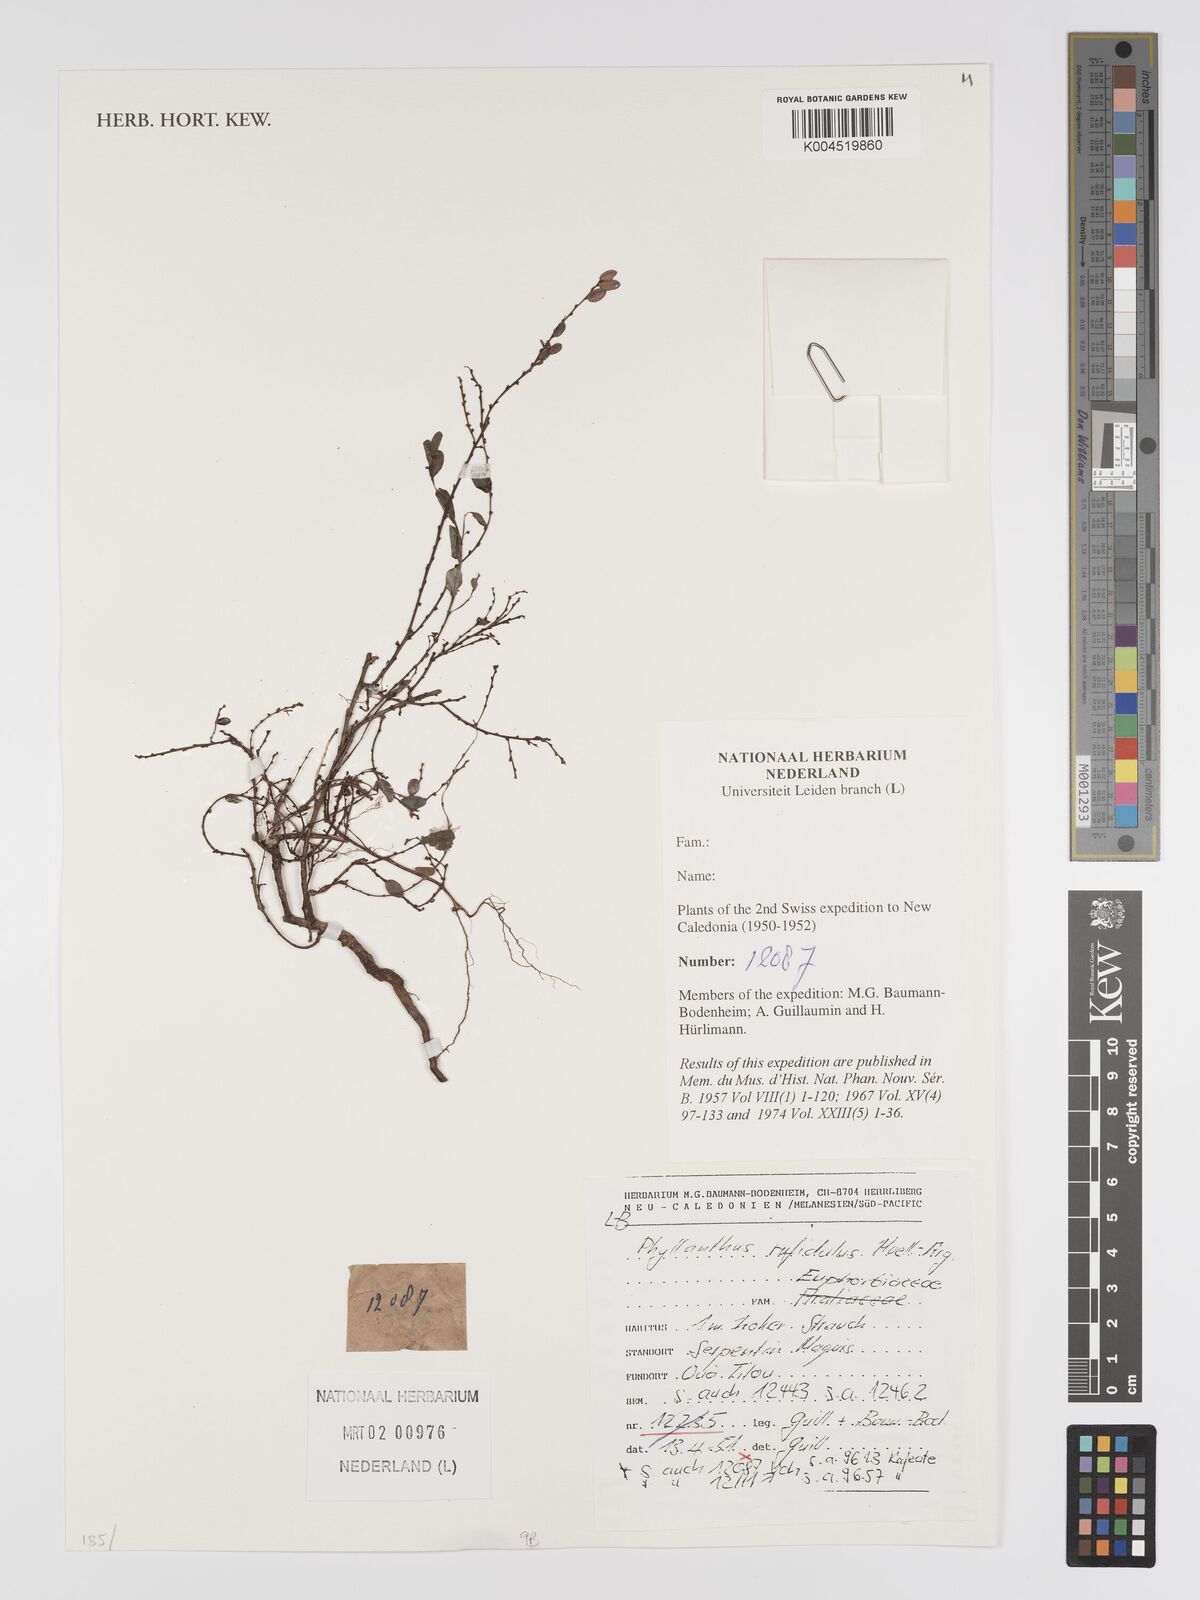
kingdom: Plantae
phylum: Tracheophyta
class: Magnoliopsida
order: Malpighiales
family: Phyllanthaceae
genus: Phyllanthus
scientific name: Phyllanthus chrysanthus
